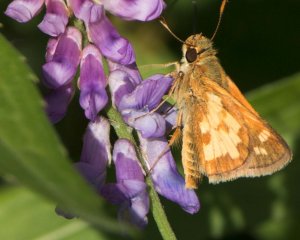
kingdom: Animalia
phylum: Arthropoda
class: Insecta
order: Lepidoptera
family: Hesperiidae
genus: Polites
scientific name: Polites coras
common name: Peck's Skipper
